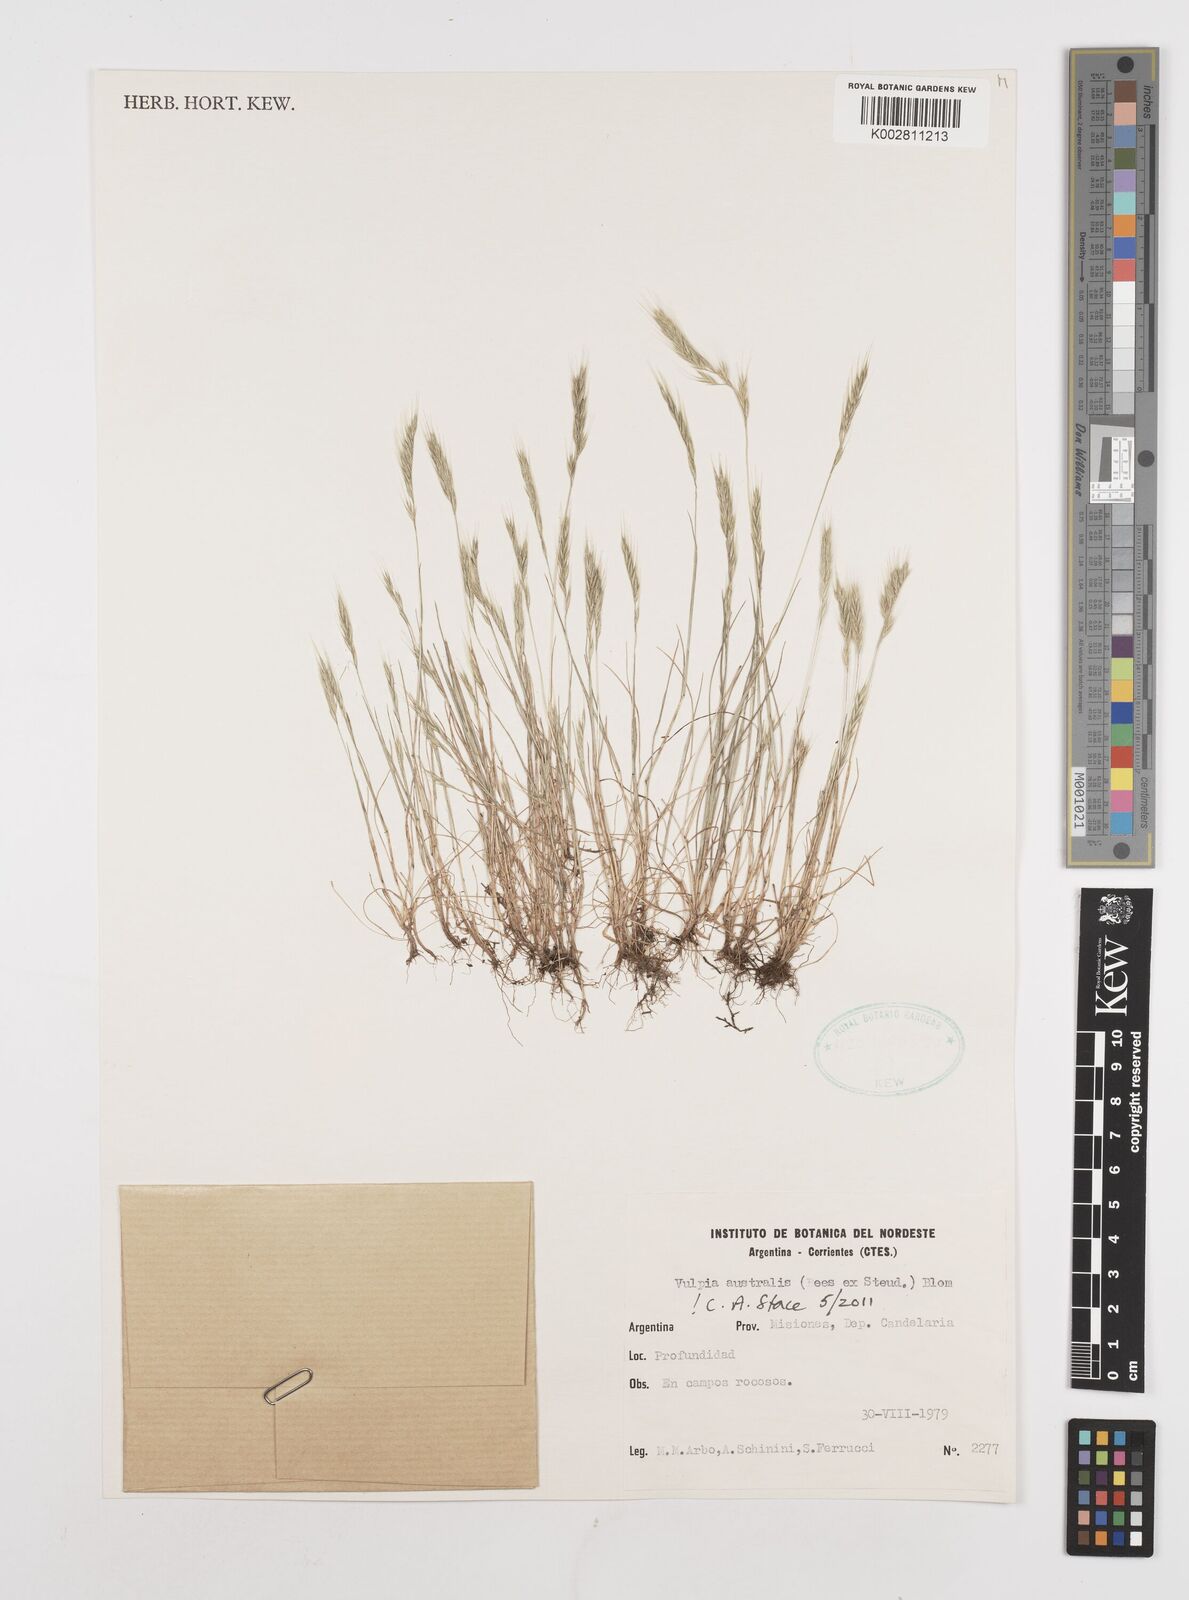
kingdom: Plantae
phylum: Tracheophyta
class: Liliopsida
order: Poales
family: Poaceae
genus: Festuca
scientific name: Festuca australis
